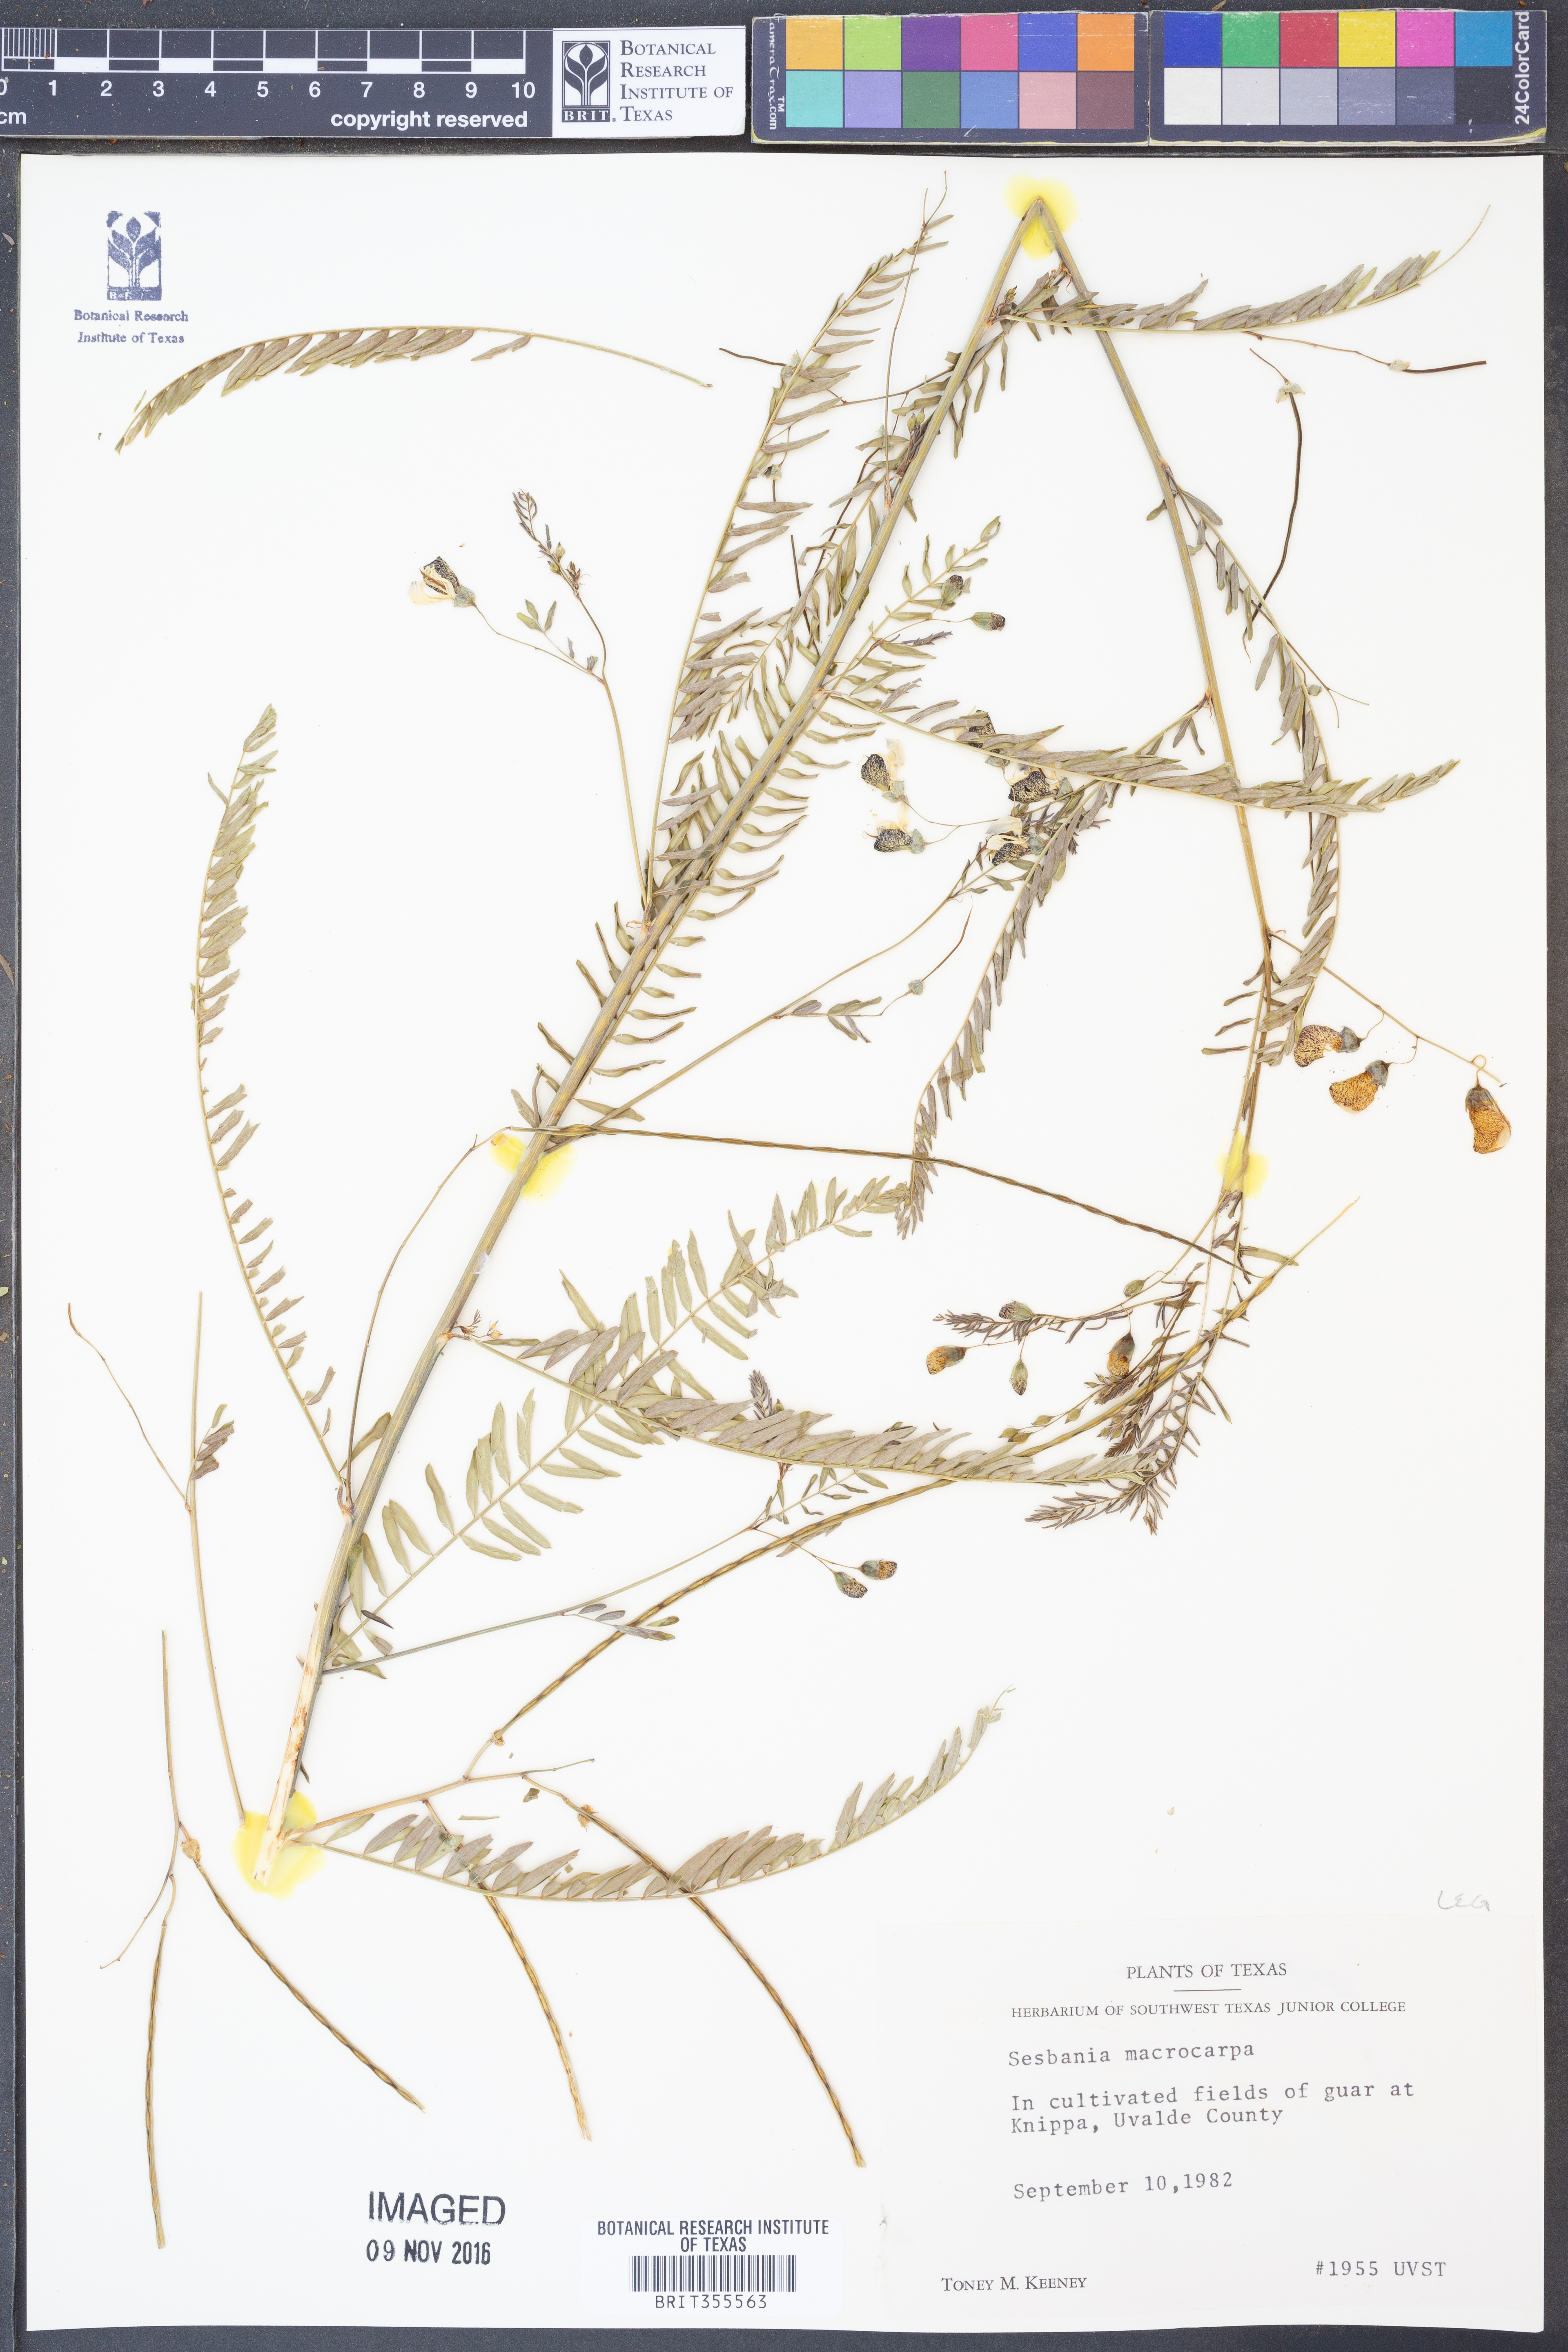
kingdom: Plantae
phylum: Tracheophyta
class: Magnoliopsida
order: Fabales
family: Fabaceae
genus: Sesbania
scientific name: Sesbania vesicaria
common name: Bagpod
